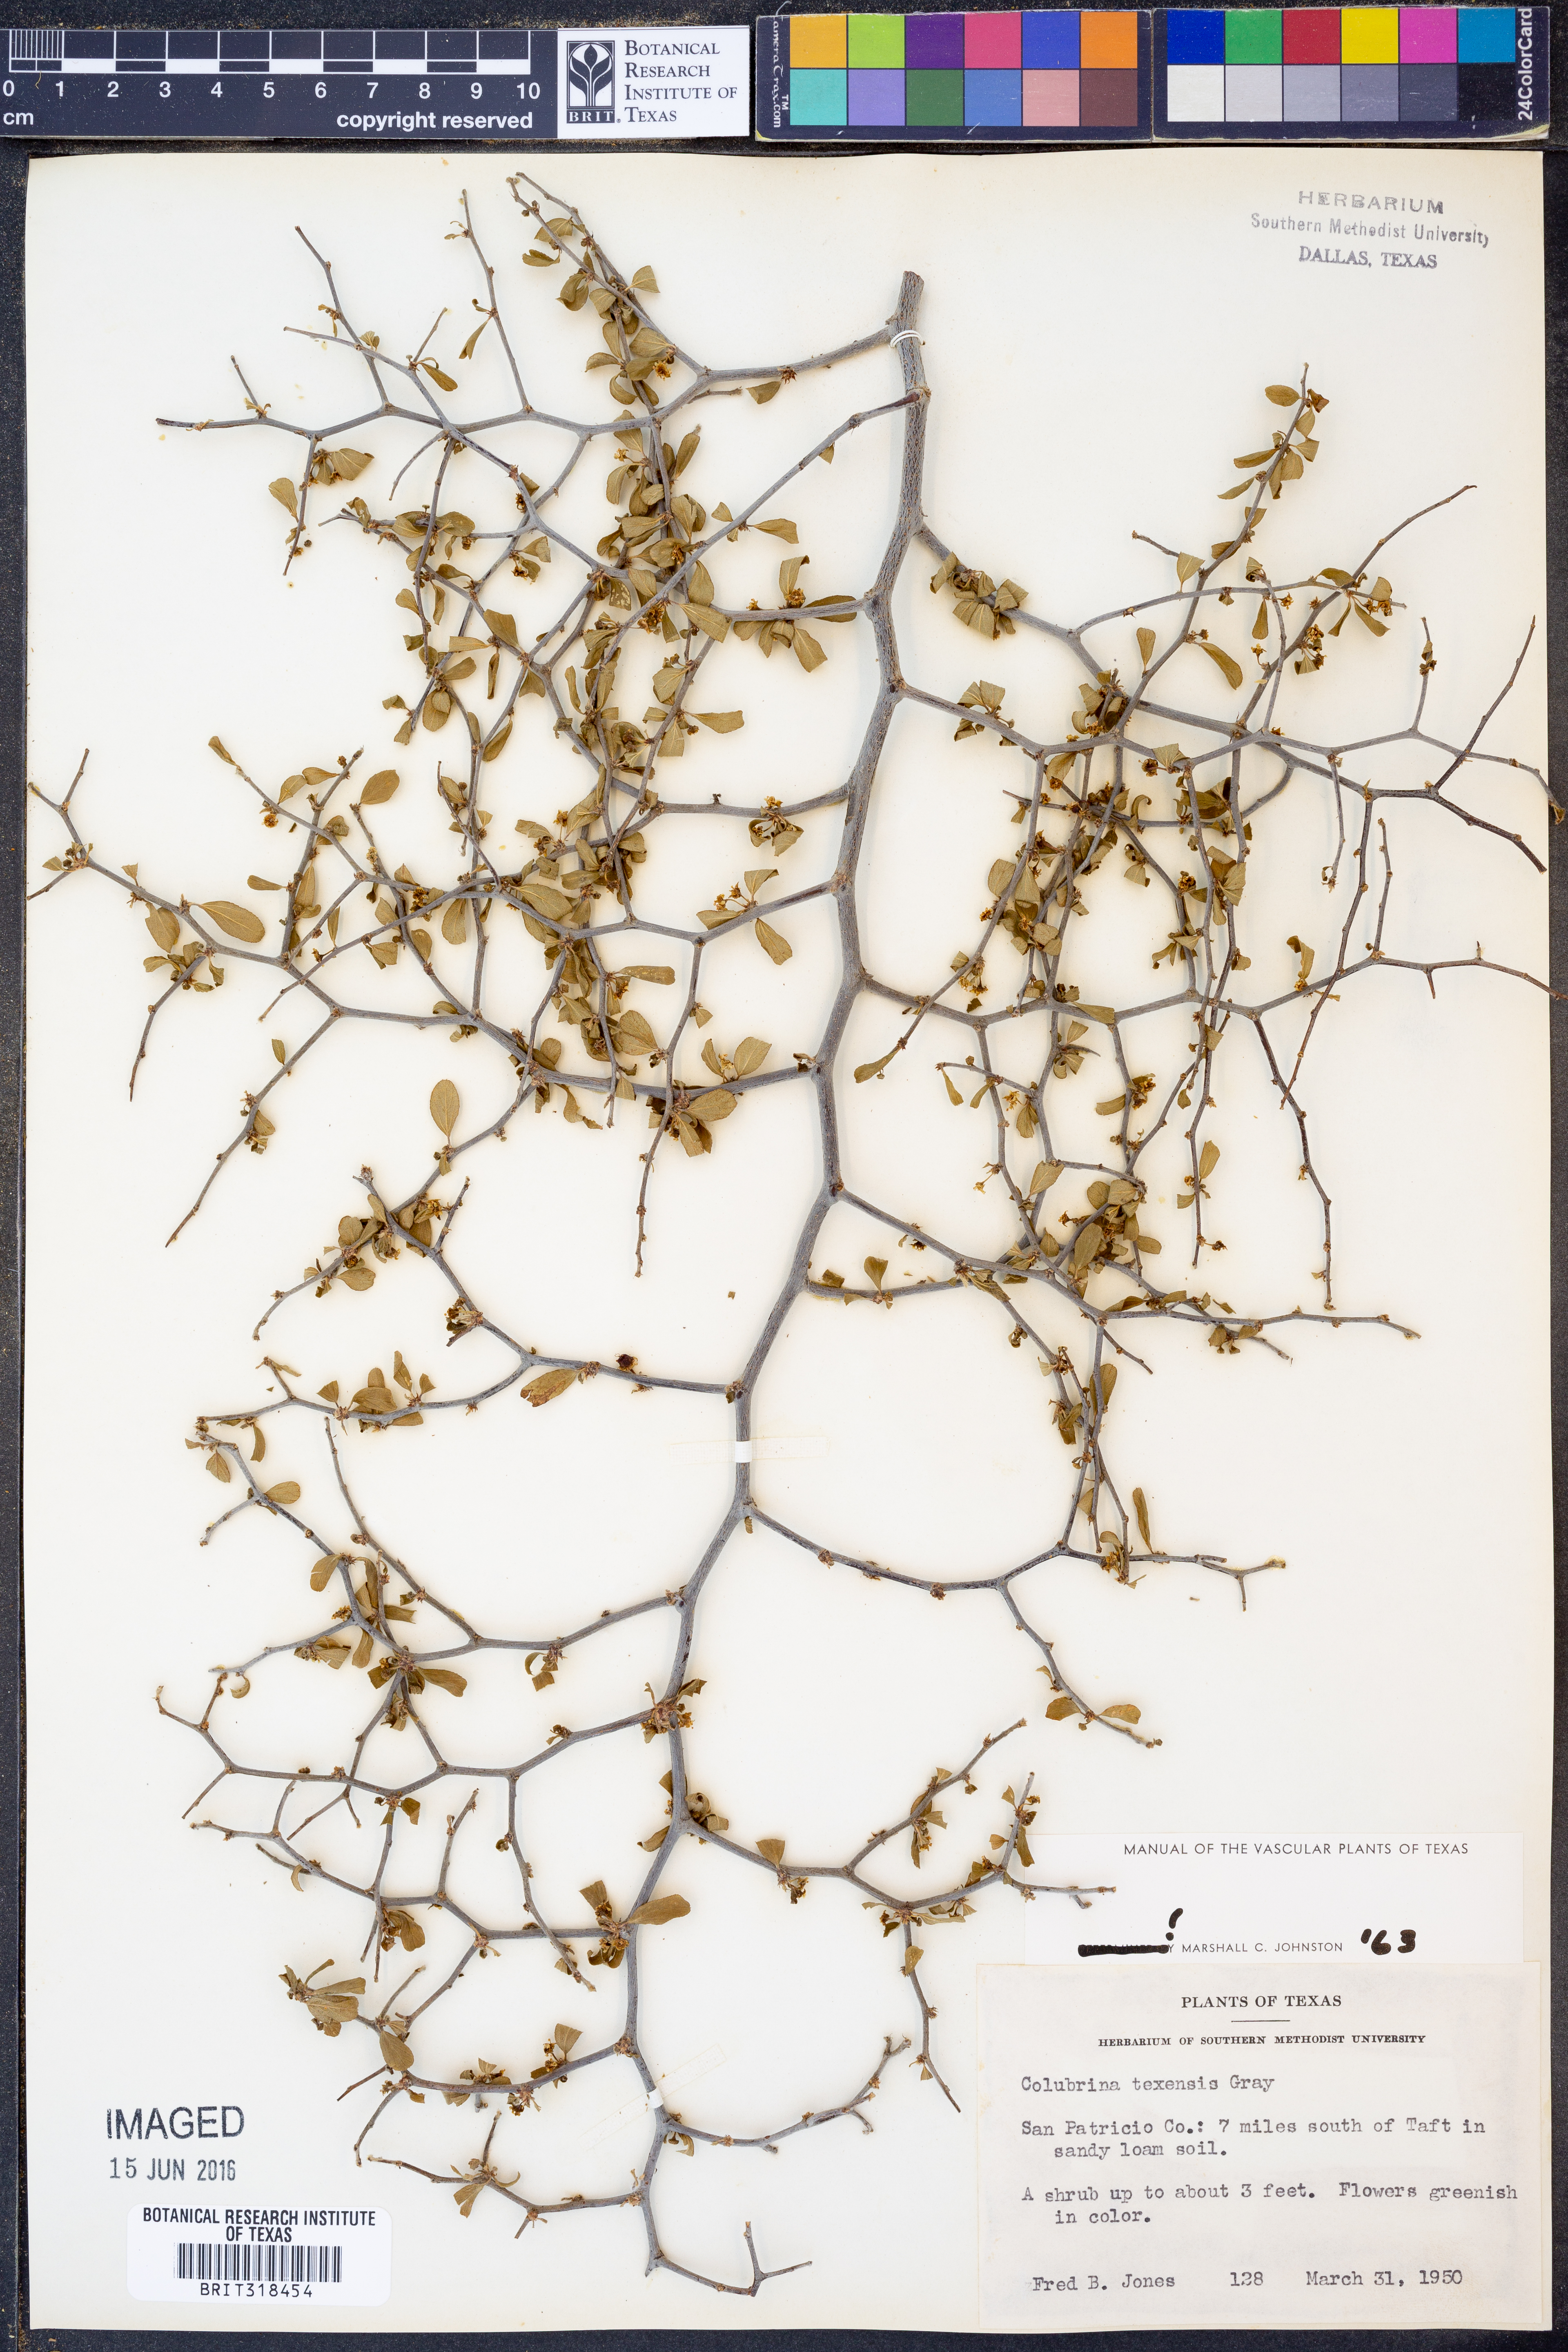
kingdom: Plantae
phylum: Tracheophyta
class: Magnoliopsida
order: Rosales
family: Rhamnaceae
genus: Colubrina
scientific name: Colubrina texensis
